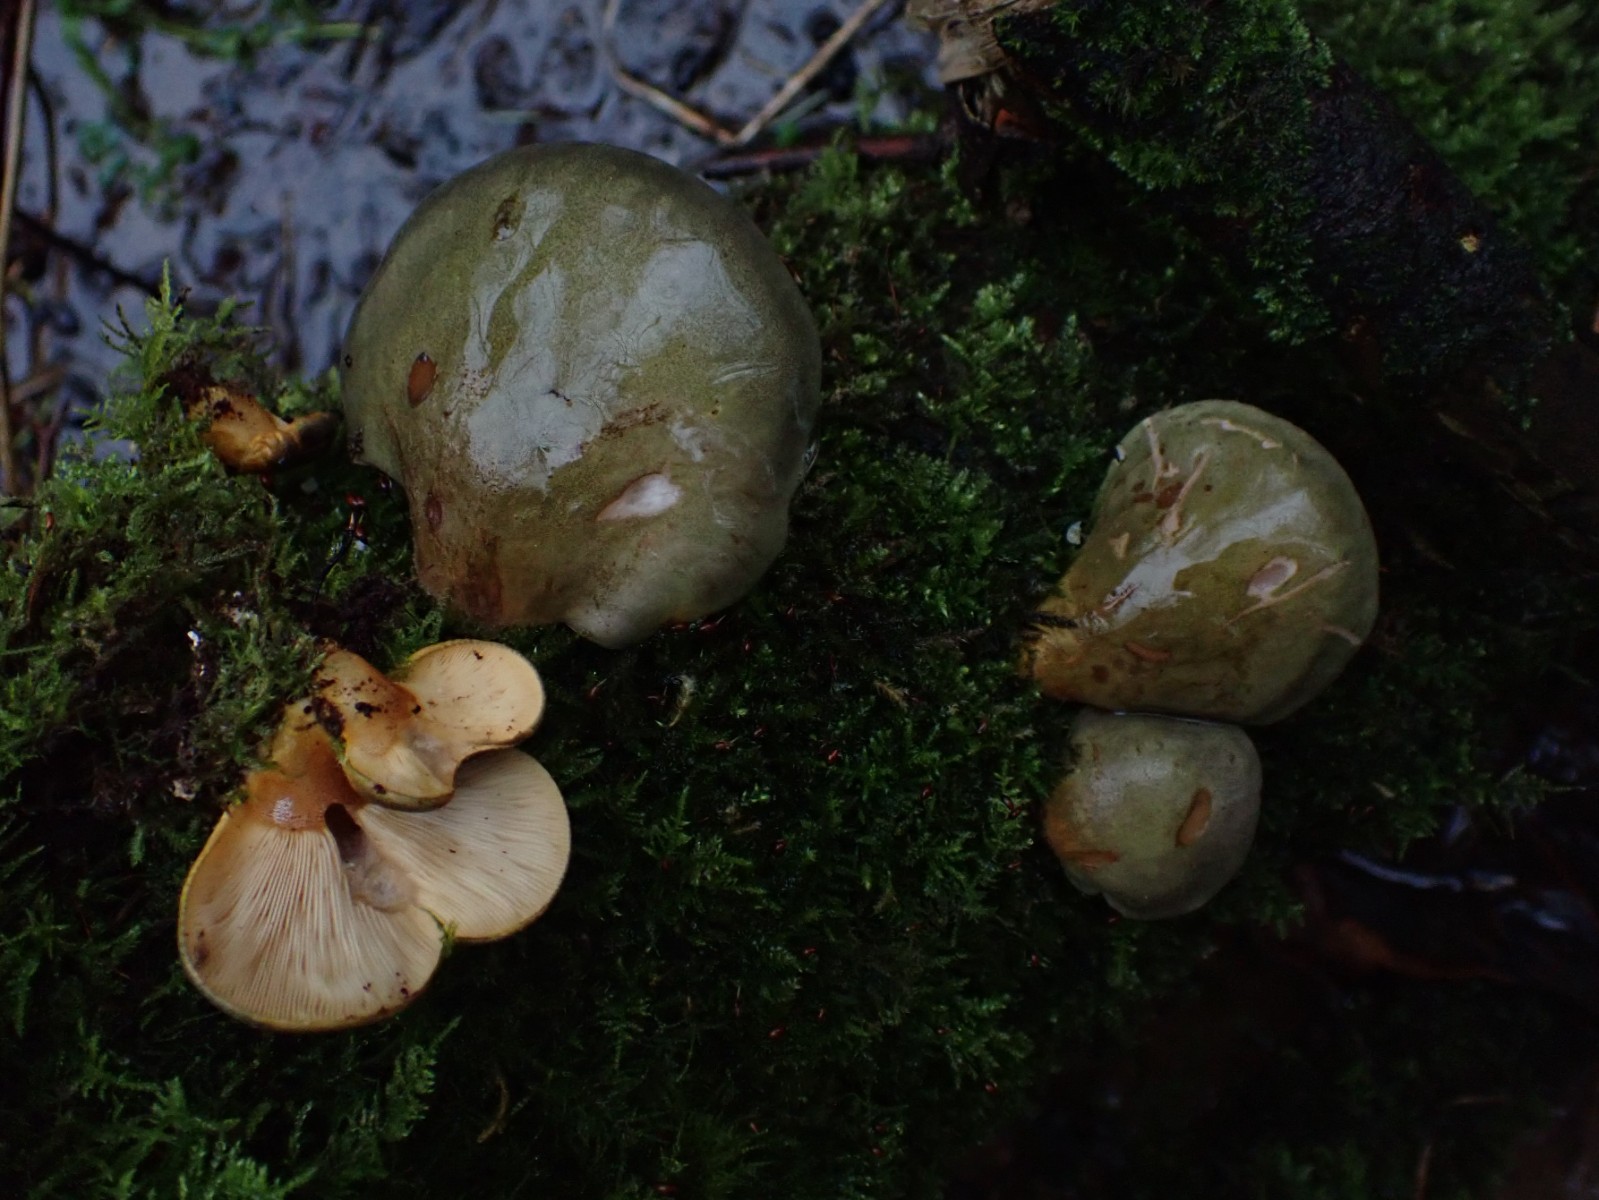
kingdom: Fungi
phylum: Basidiomycota
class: Agaricomycetes
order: Agaricales
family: Sarcomyxaceae
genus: Sarcomyxa
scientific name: Sarcomyxa serotina
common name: gummihat
